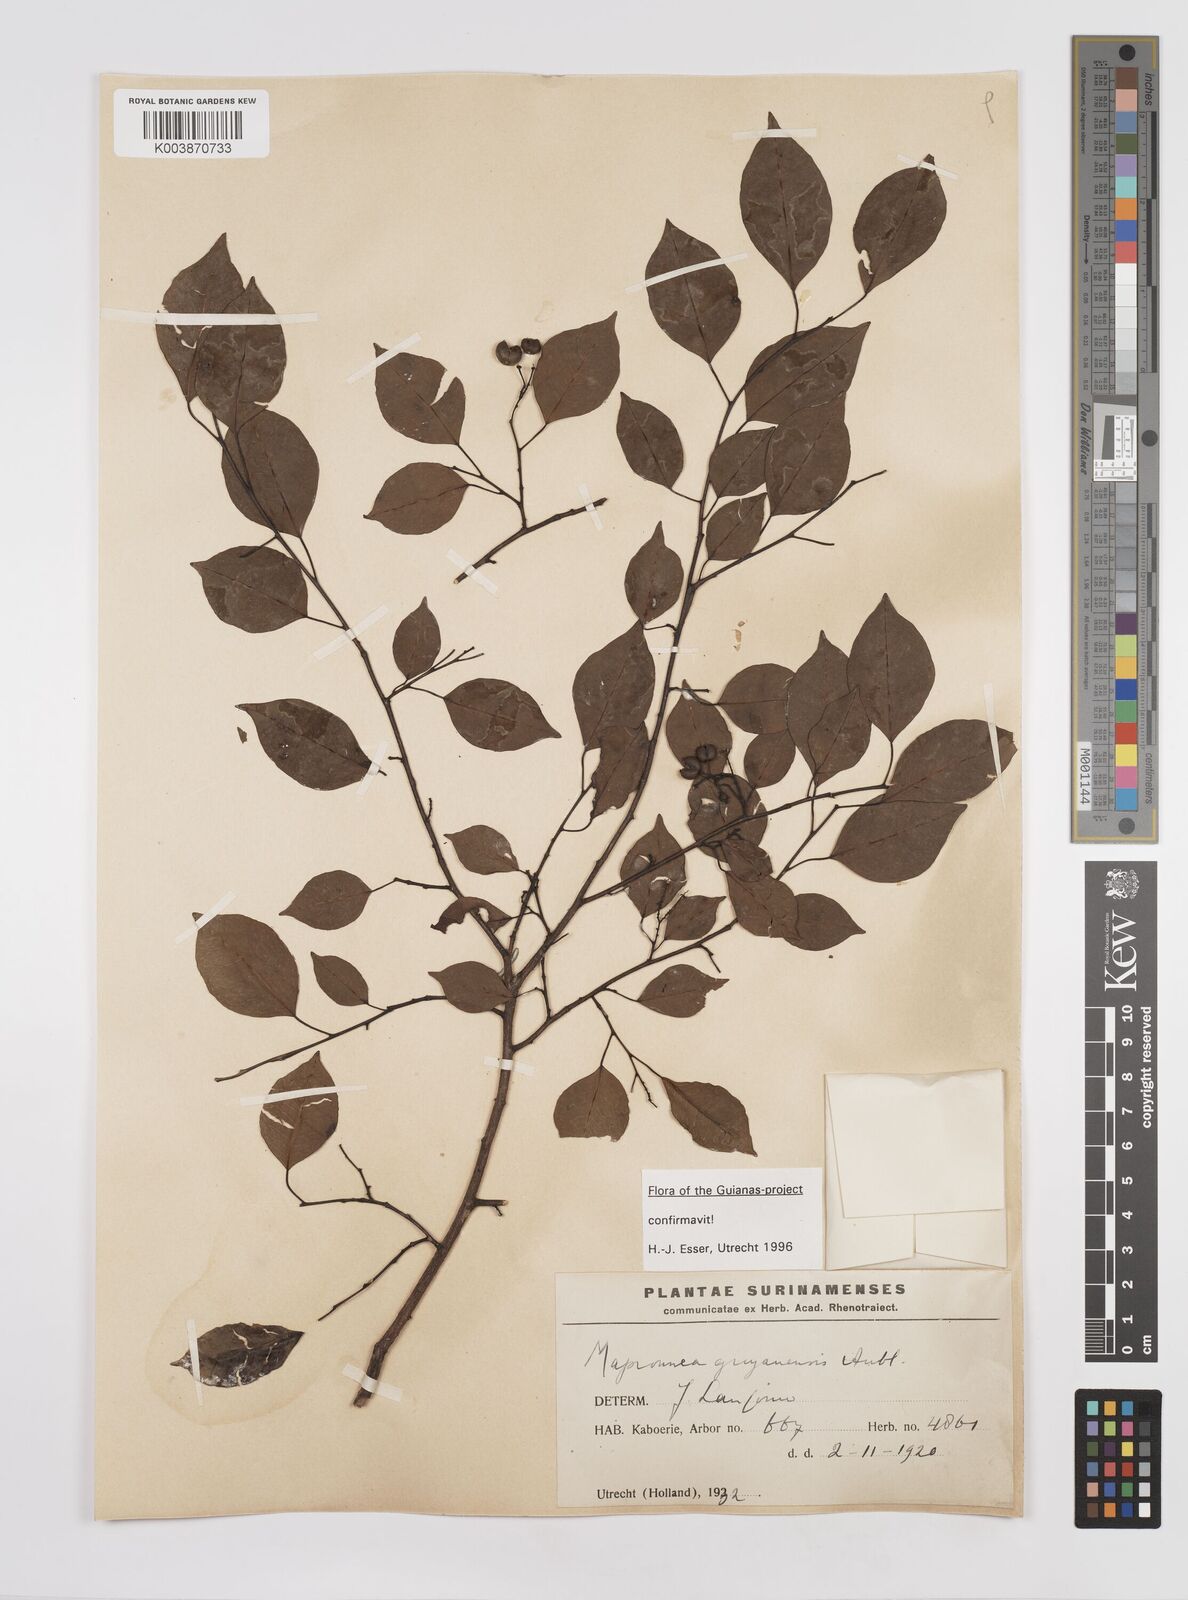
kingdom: Plantae
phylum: Tracheophyta
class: Magnoliopsida
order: Malpighiales
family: Euphorbiaceae
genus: Maprounea
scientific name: Maprounea guianensis
